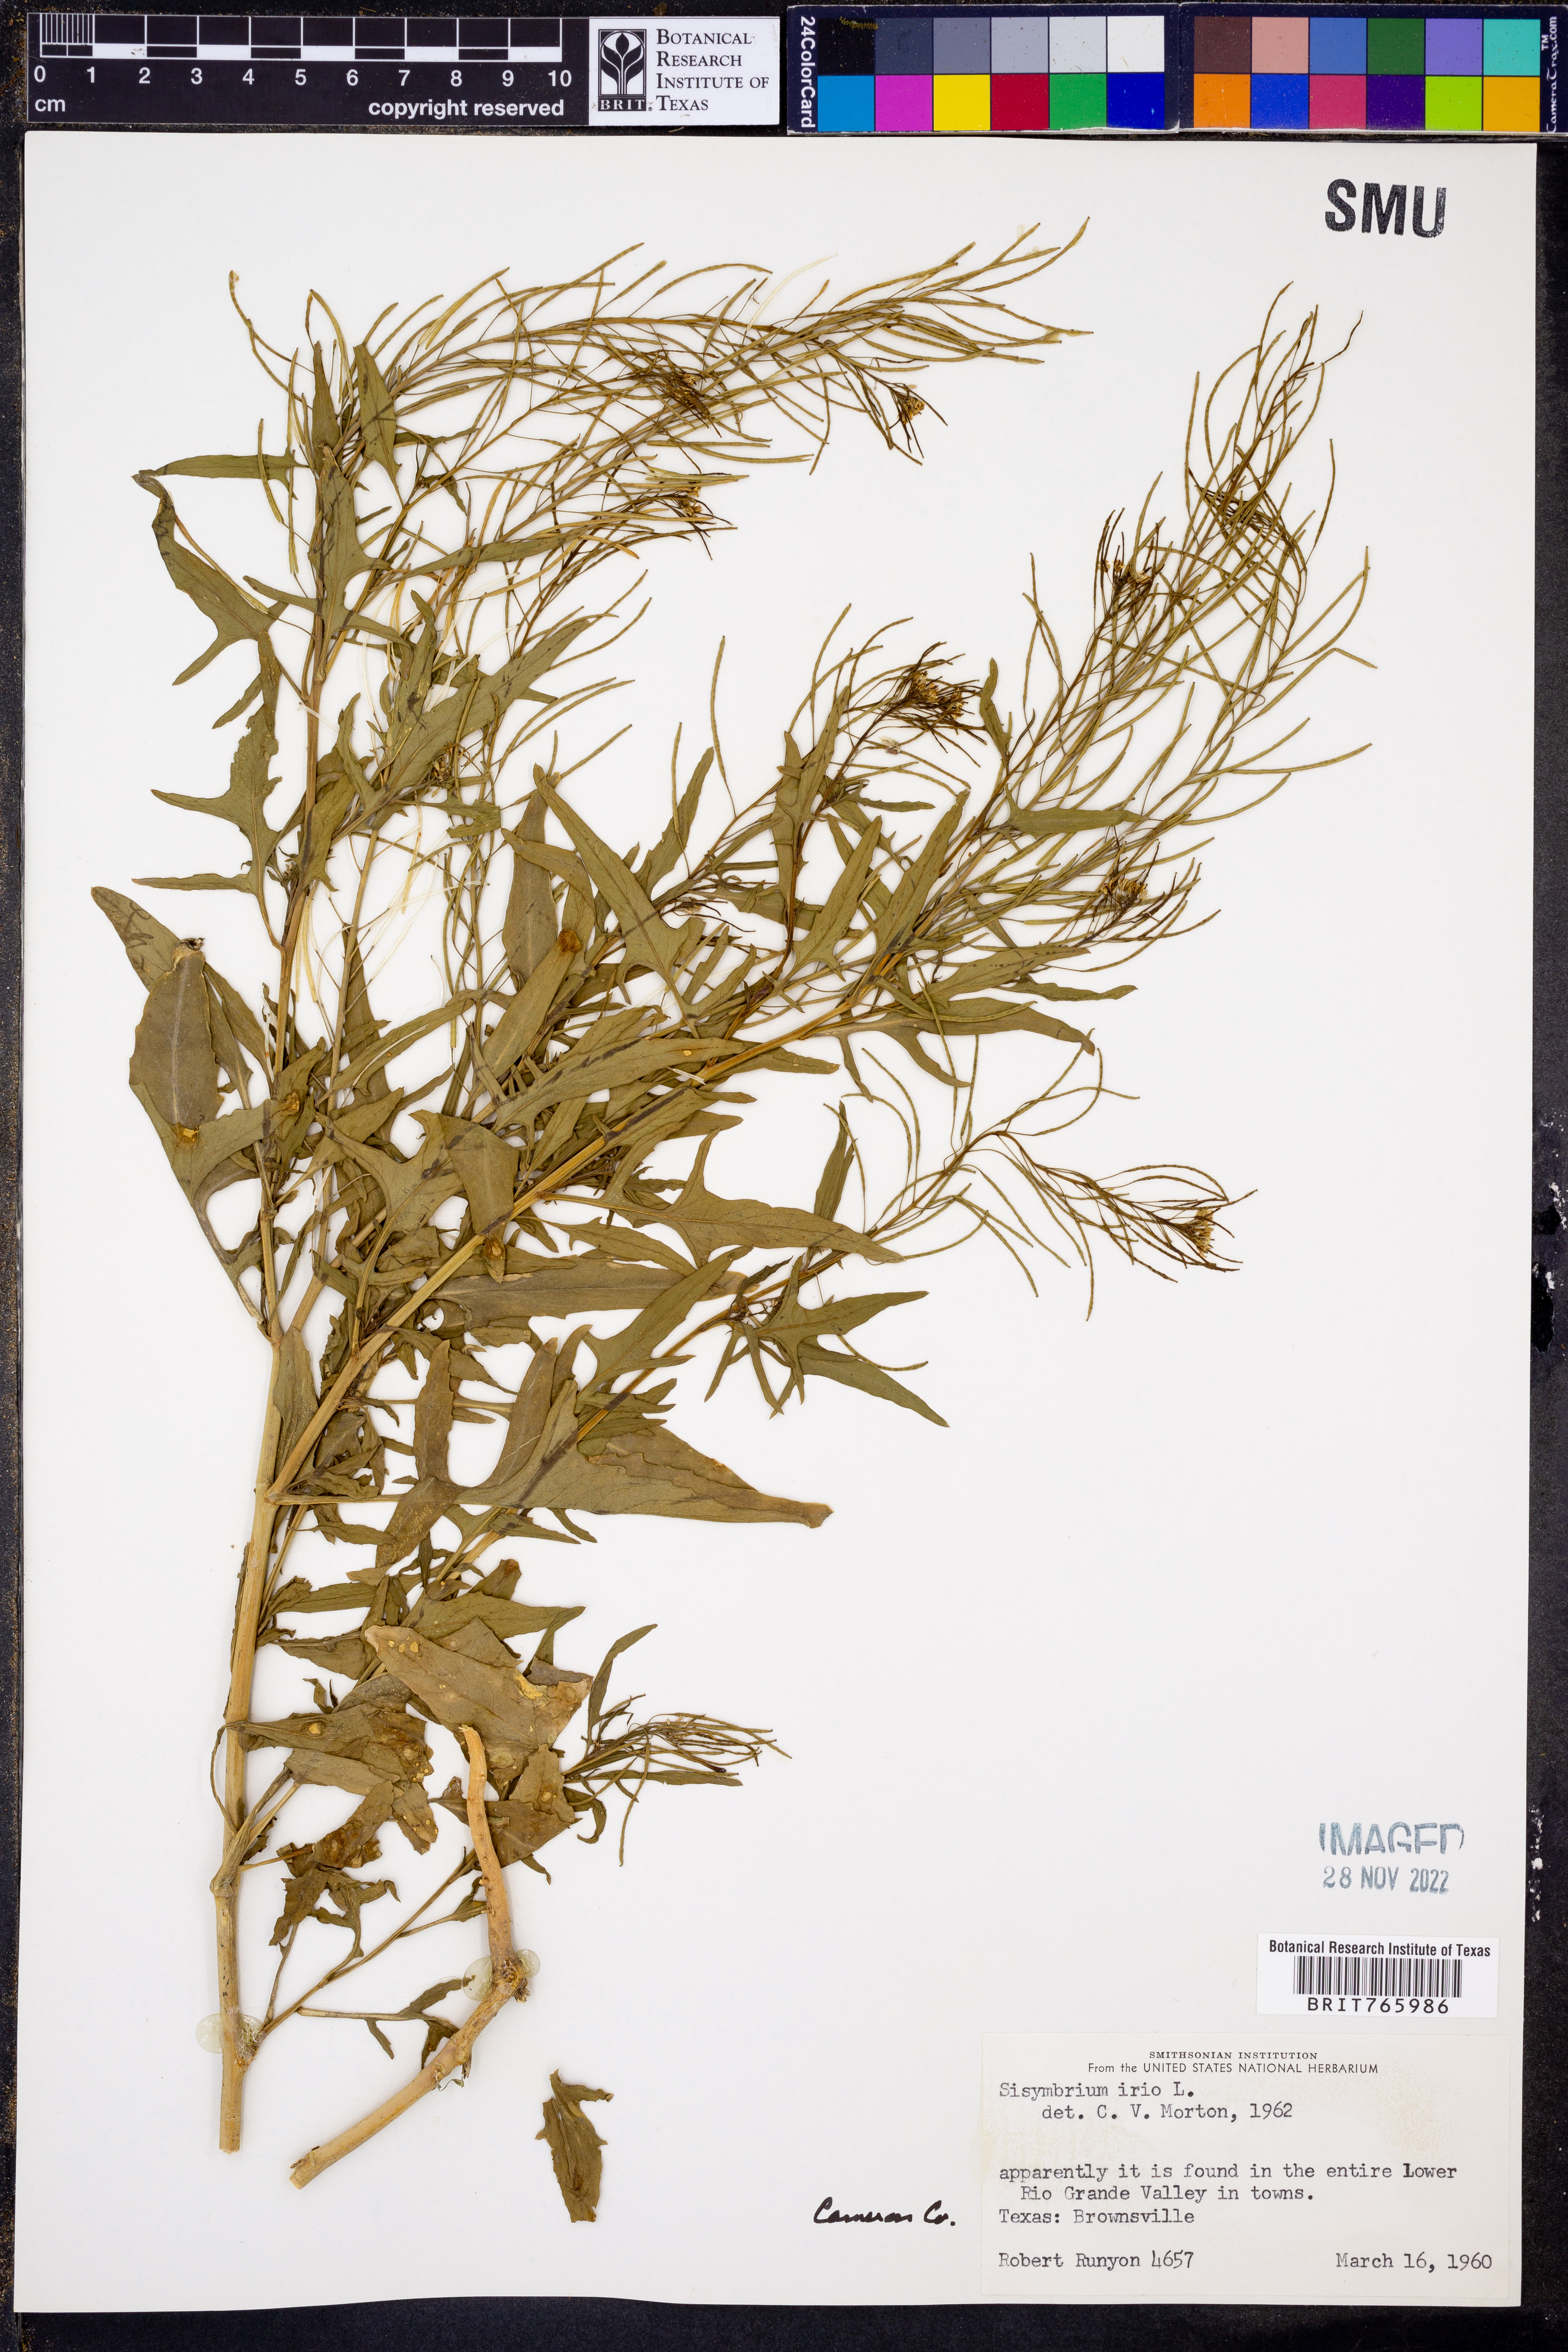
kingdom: Plantae
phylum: Tracheophyta
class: Magnoliopsida
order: Brassicales
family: Brassicaceae
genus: Sisymbrium
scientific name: Sisymbrium irio
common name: London rocket
